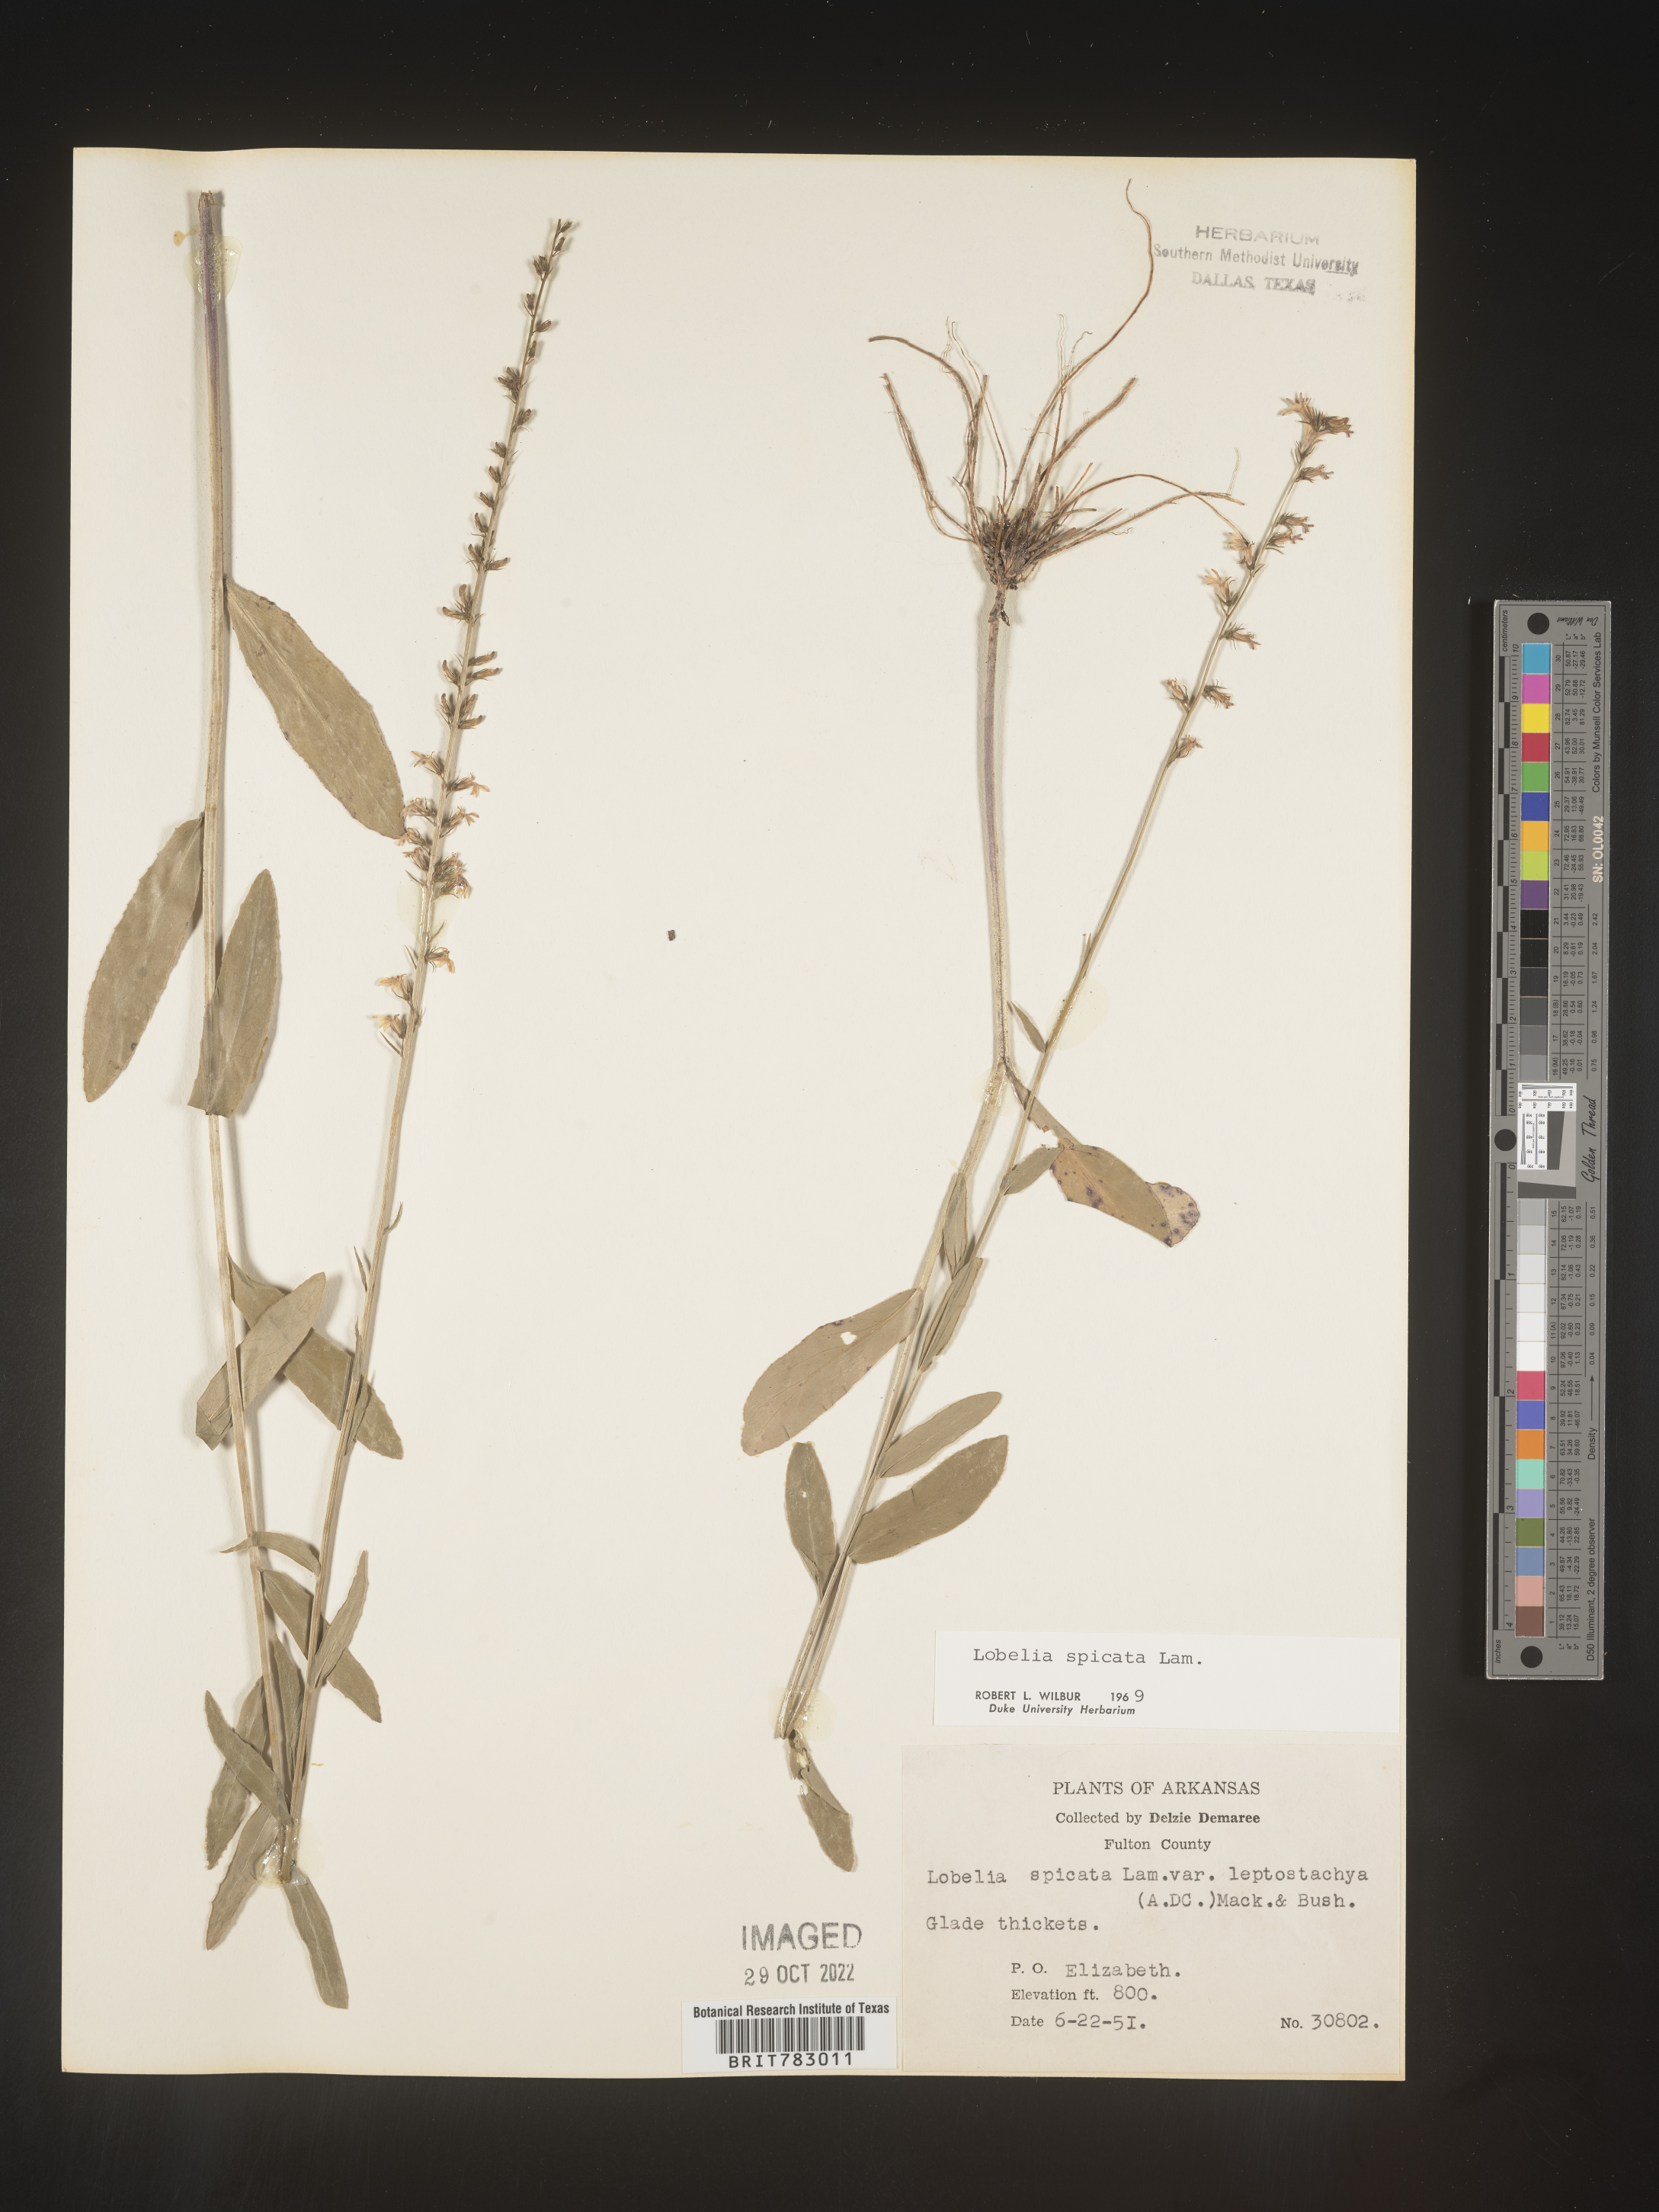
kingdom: Plantae
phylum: Tracheophyta
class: Magnoliopsida
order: Asterales
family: Campanulaceae
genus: Lobelia
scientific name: Lobelia spicata
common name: Pale-spike lobelia
